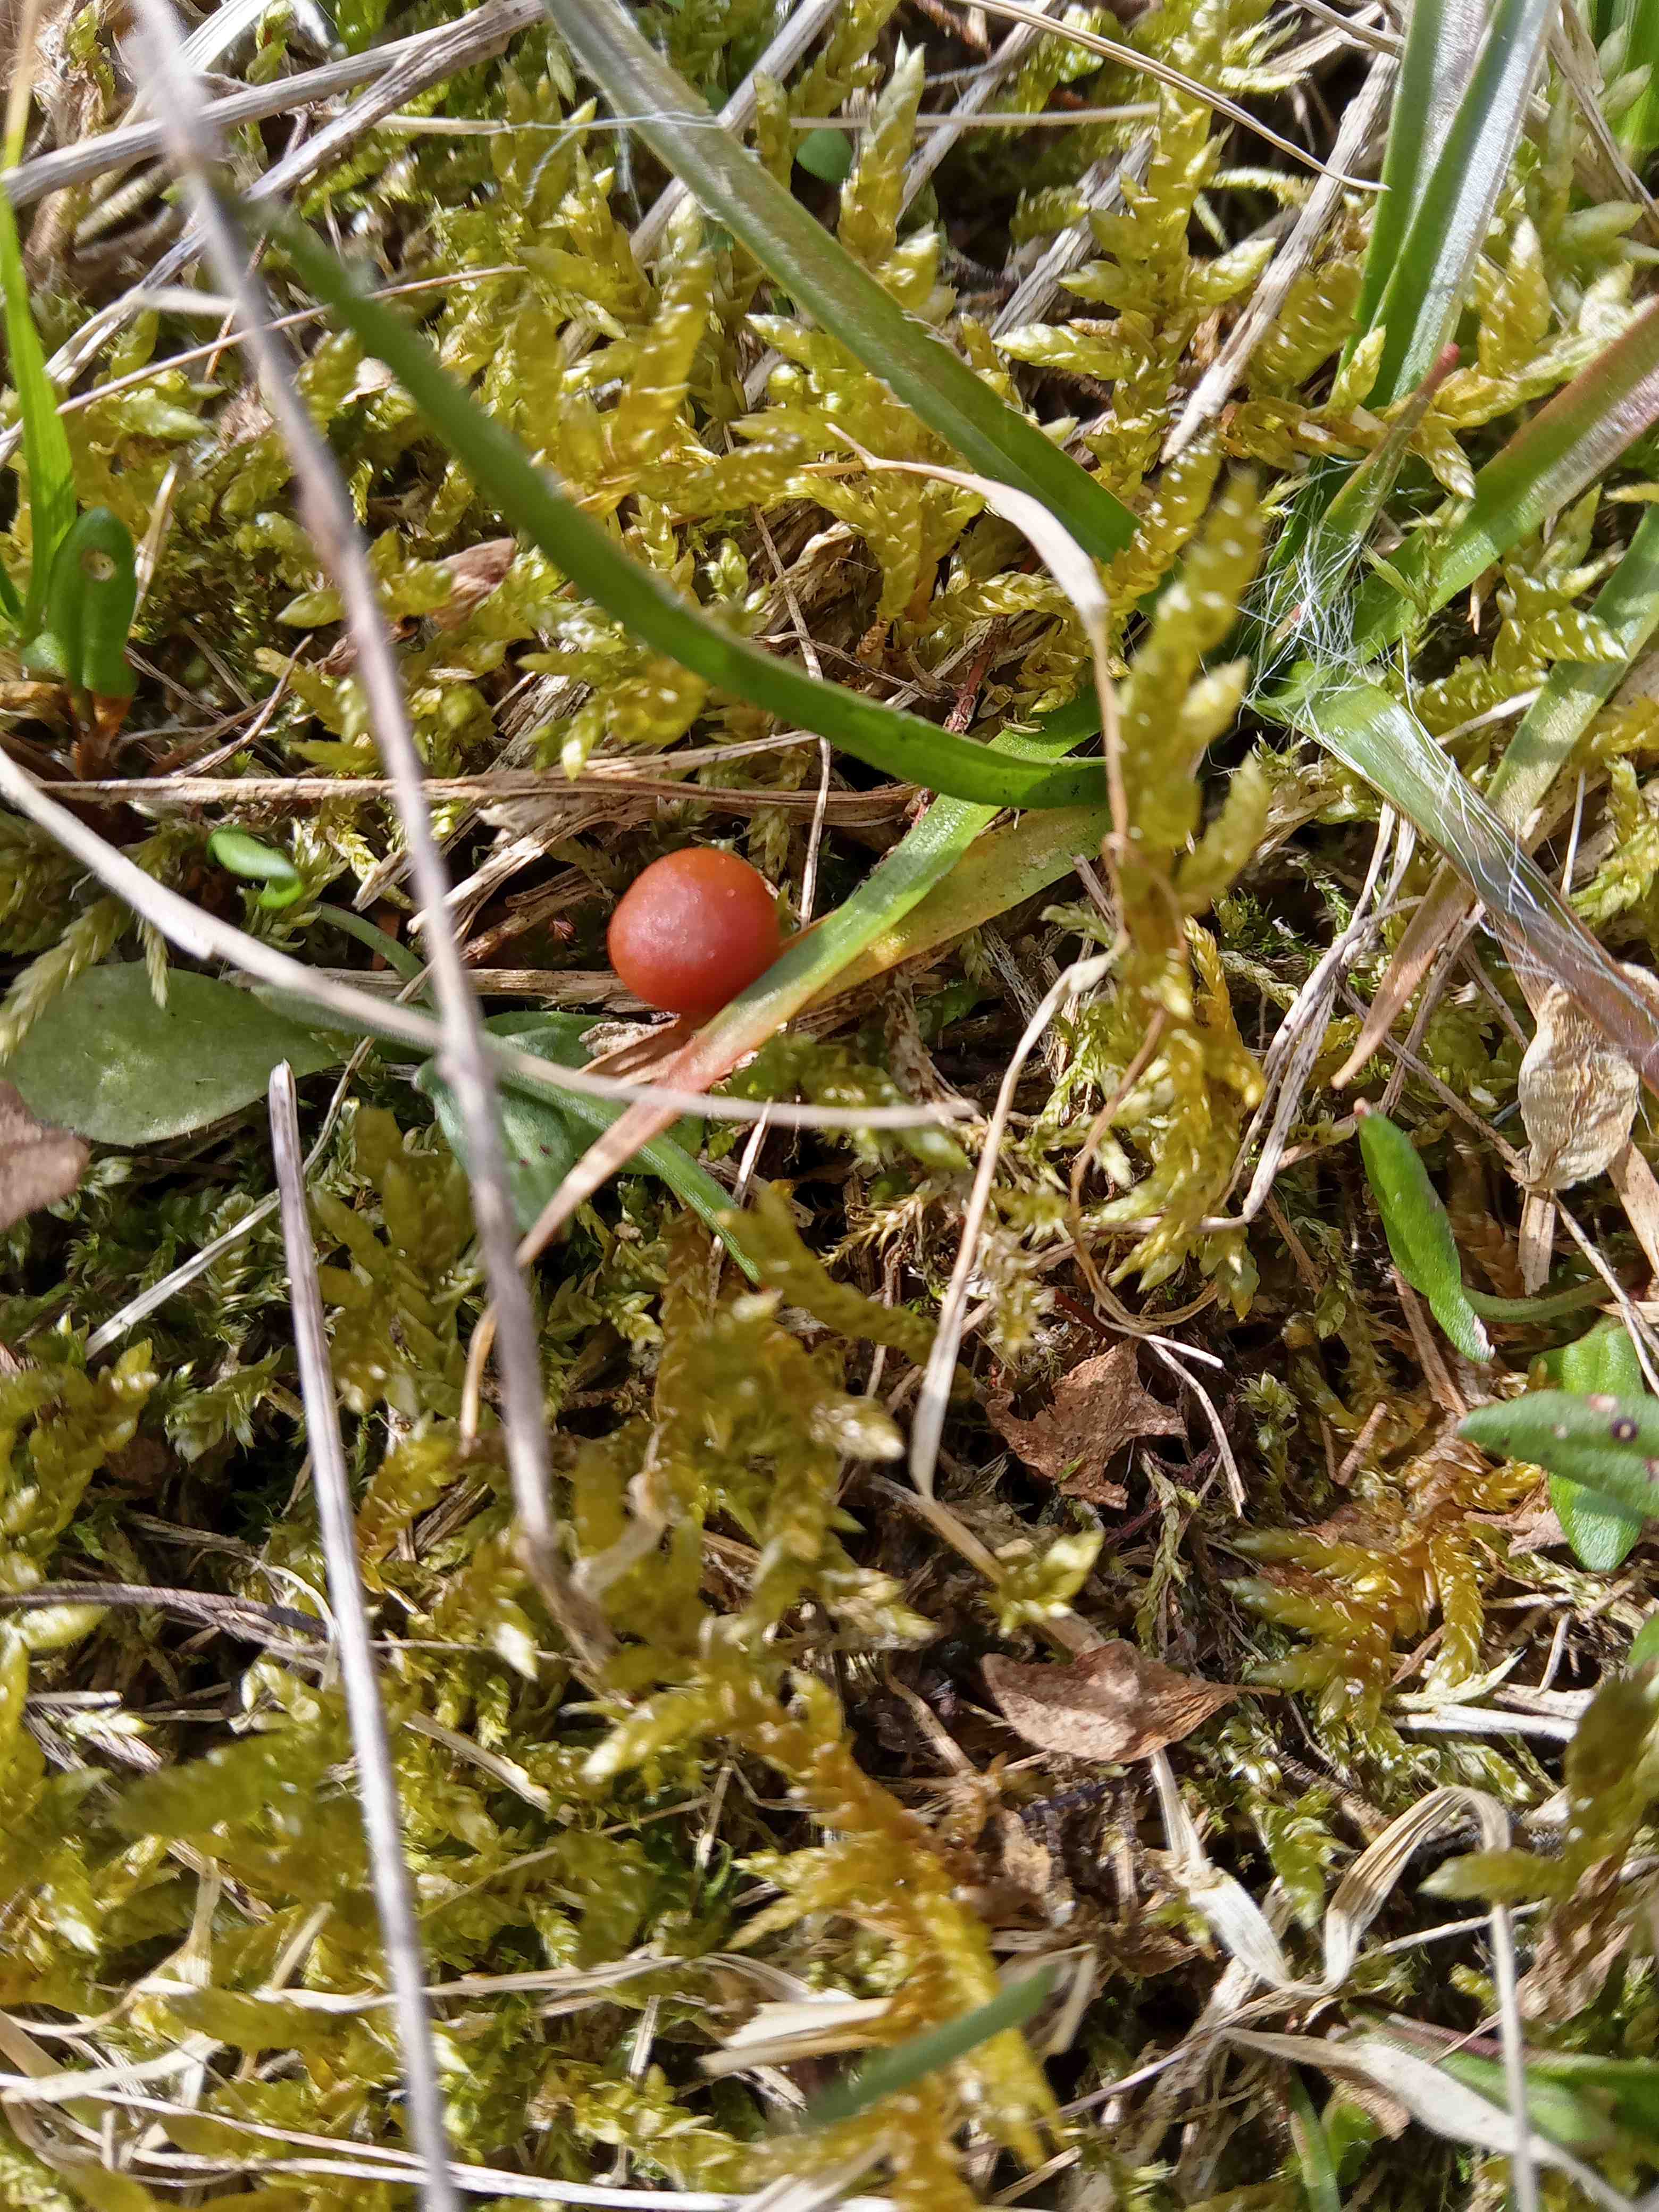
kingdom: Fungi
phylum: Basidiomycota
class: Agaricomycetes
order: Agaricales
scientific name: Agaricales
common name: champignonordenen
